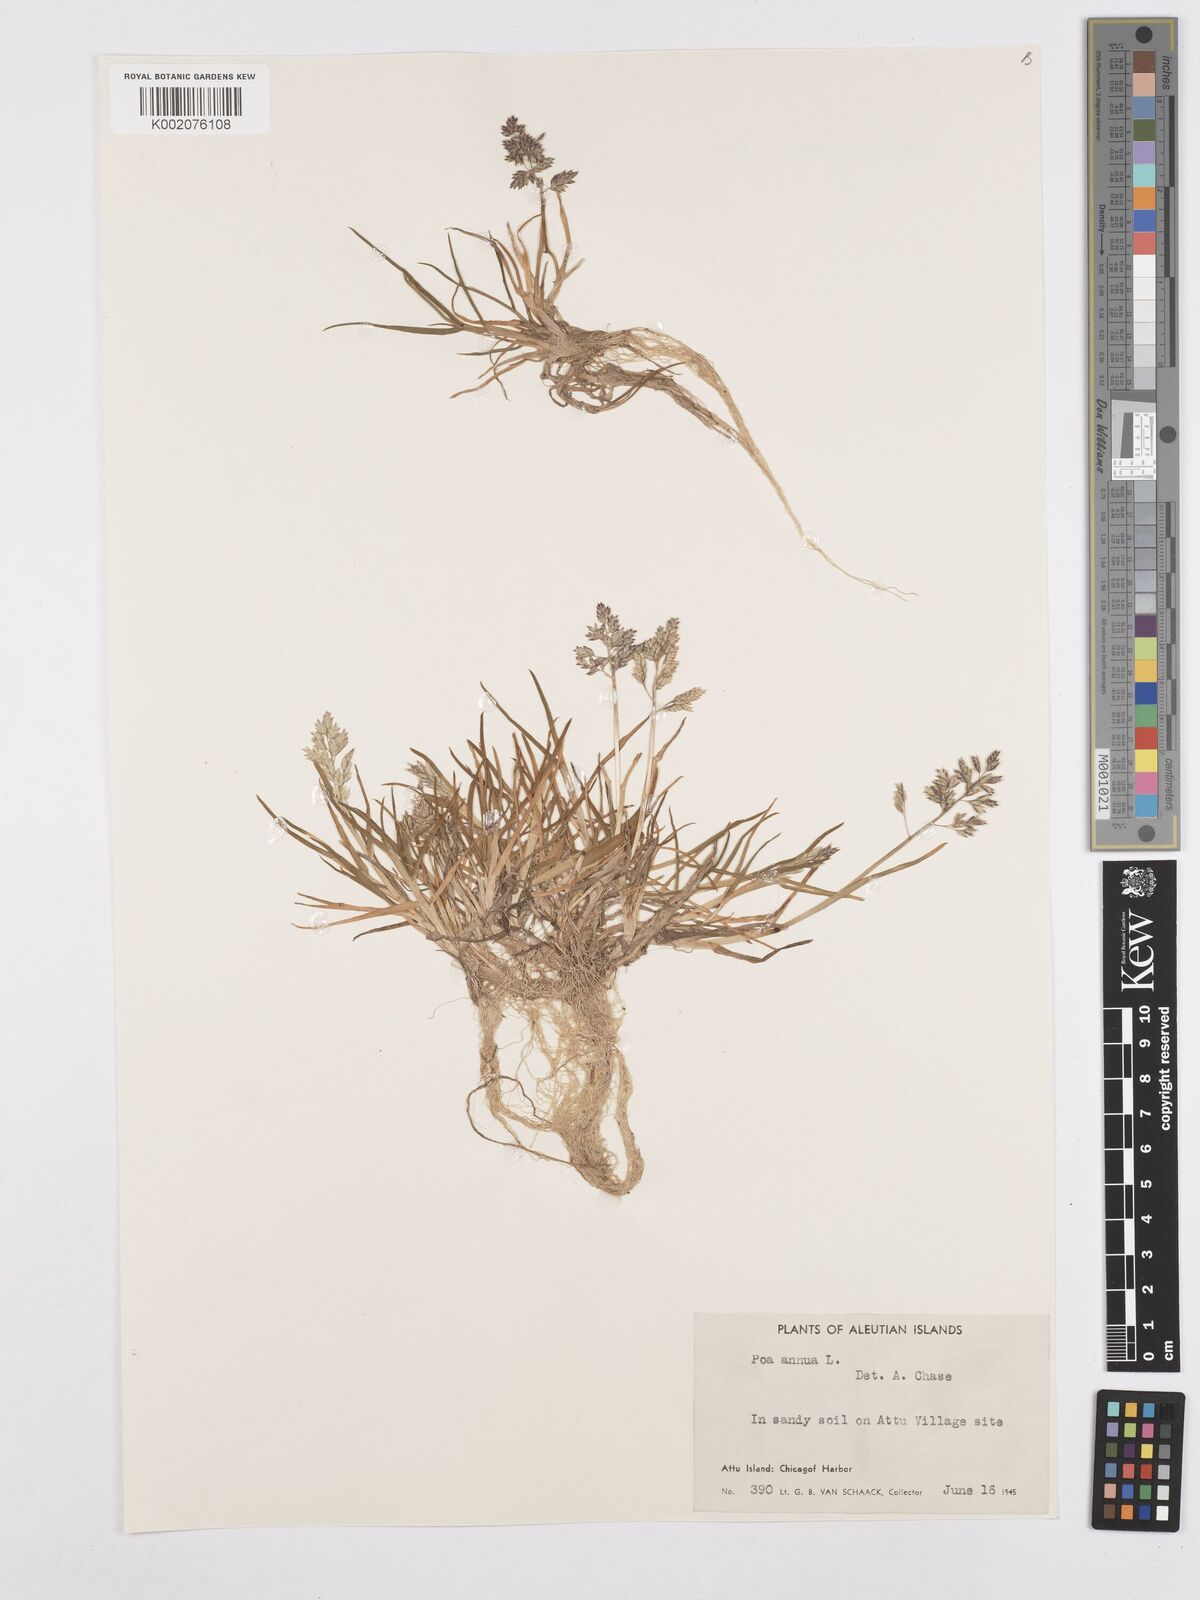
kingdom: Plantae
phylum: Tracheophyta
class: Liliopsida
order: Poales
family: Poaceae
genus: Poa
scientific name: Poa annua
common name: Annual bluegrass
